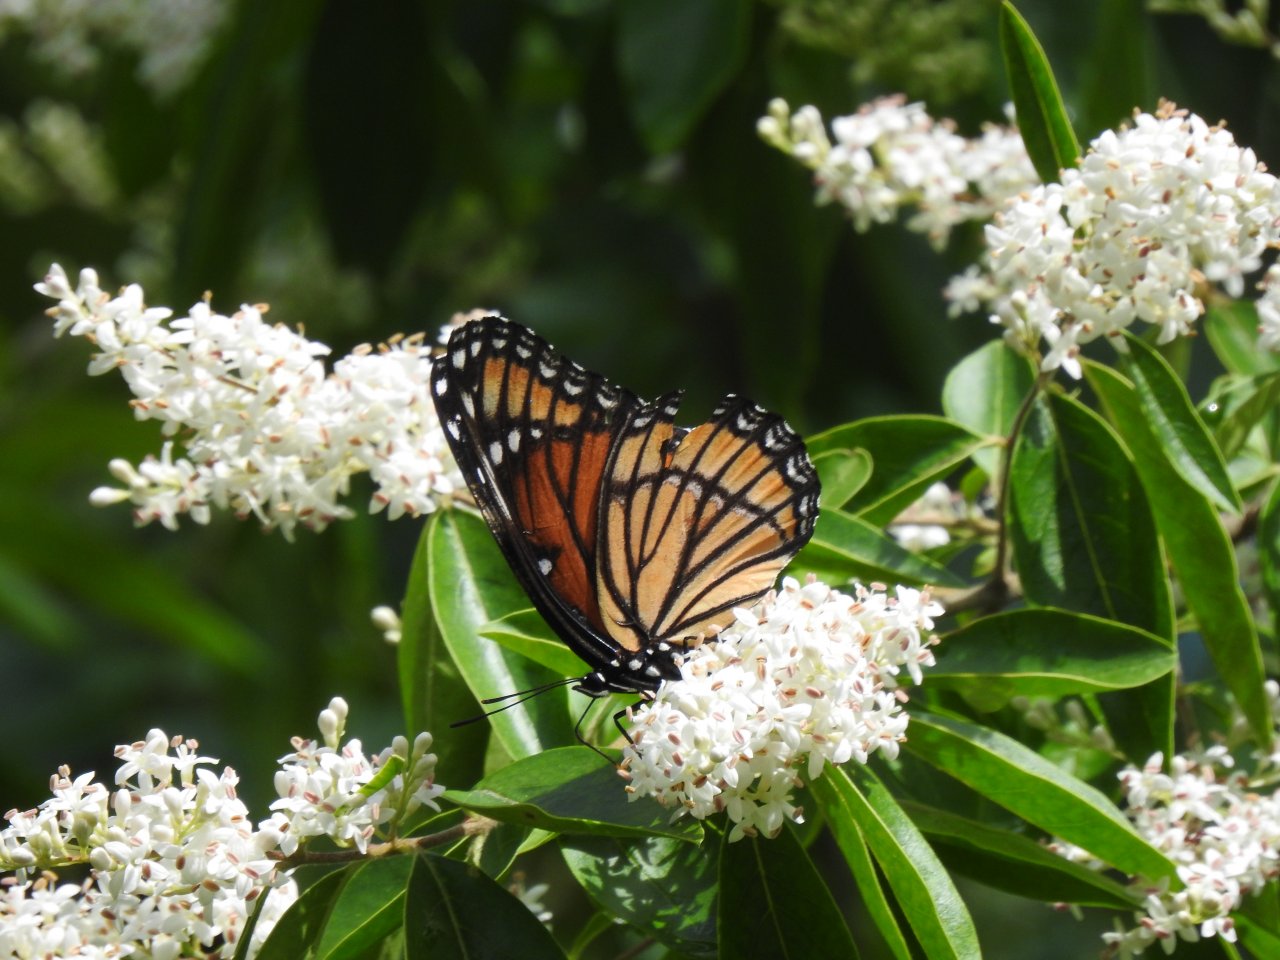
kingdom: Animalia
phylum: Arthropoda
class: Insecta
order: Lepidoptera
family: Nymphalidae
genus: Limenitis
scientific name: Limenitis archippus
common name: Viceroy
